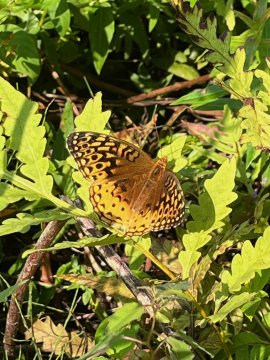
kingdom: Animalia
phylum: Arthropoda
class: Insecta
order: Lepidoptera
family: Nymphalidae
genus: Speyeria
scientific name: Speyeria cybele
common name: Great Spangled Fritillary
